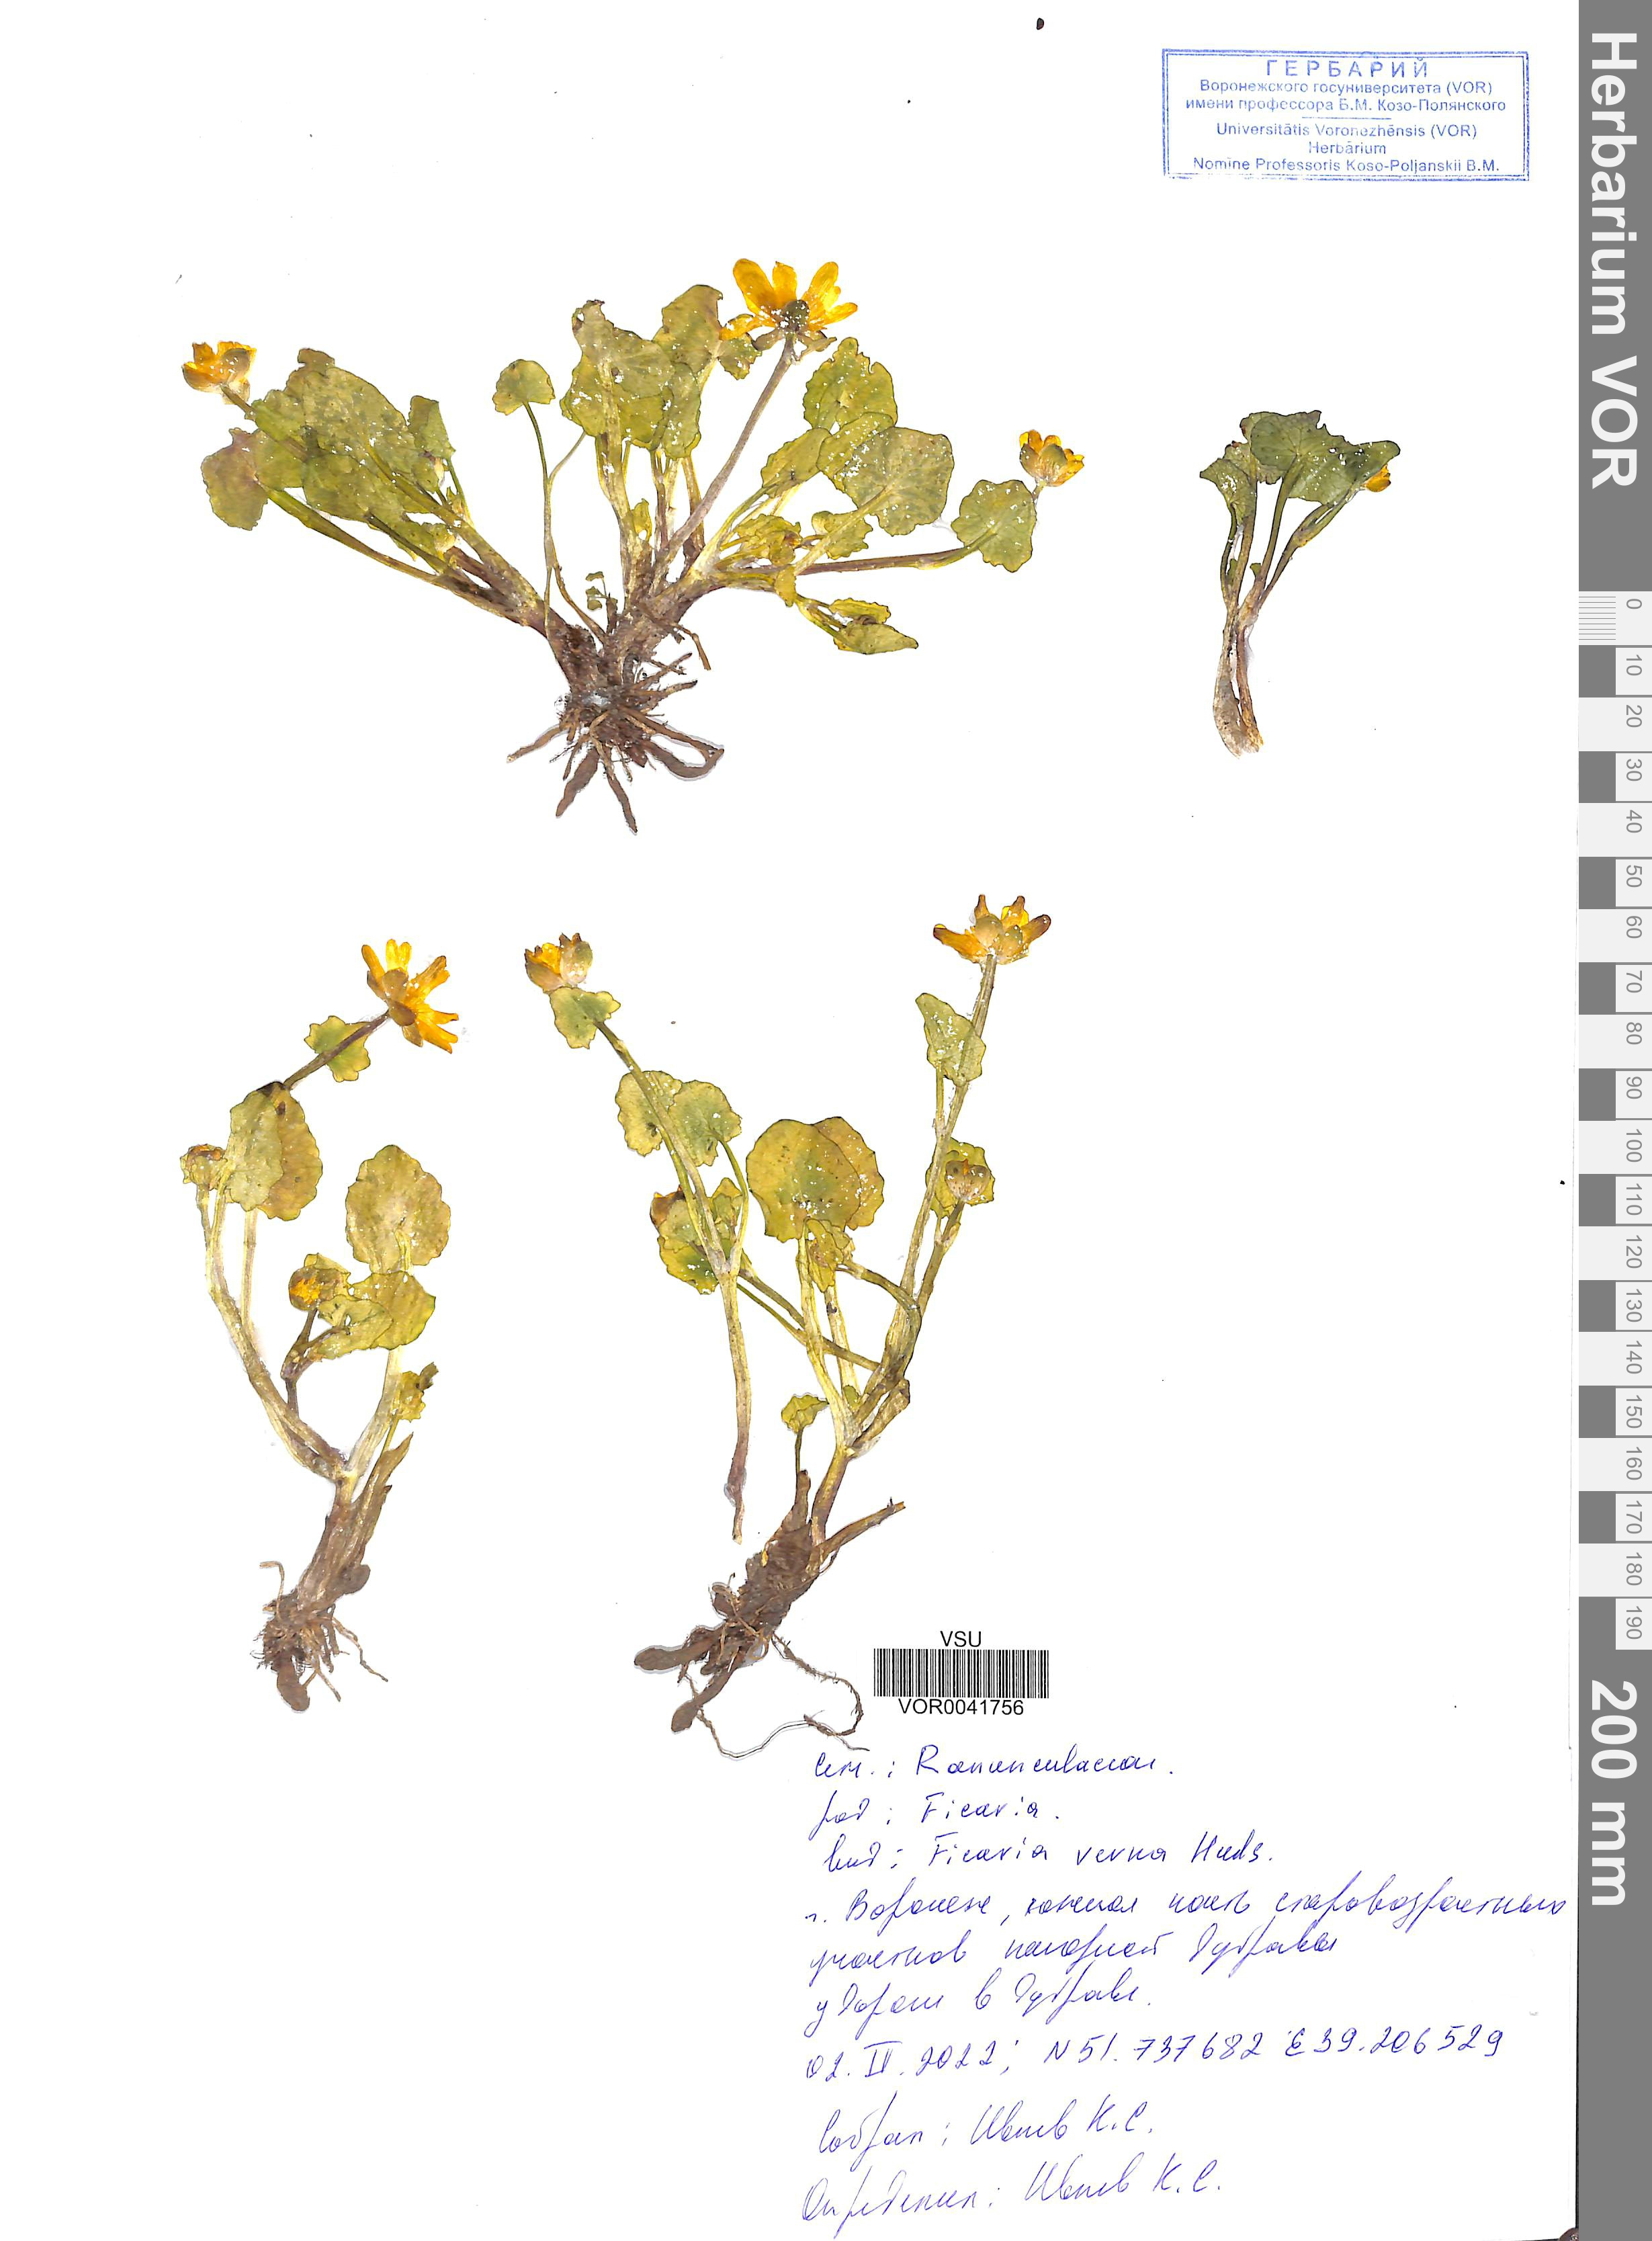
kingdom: Plantae
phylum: Tracheophyta
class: Magnoliopsida
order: Ranunculales
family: Ranunculaceae
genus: Ficaria
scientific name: Ficaria verna
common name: Lesser celandine
